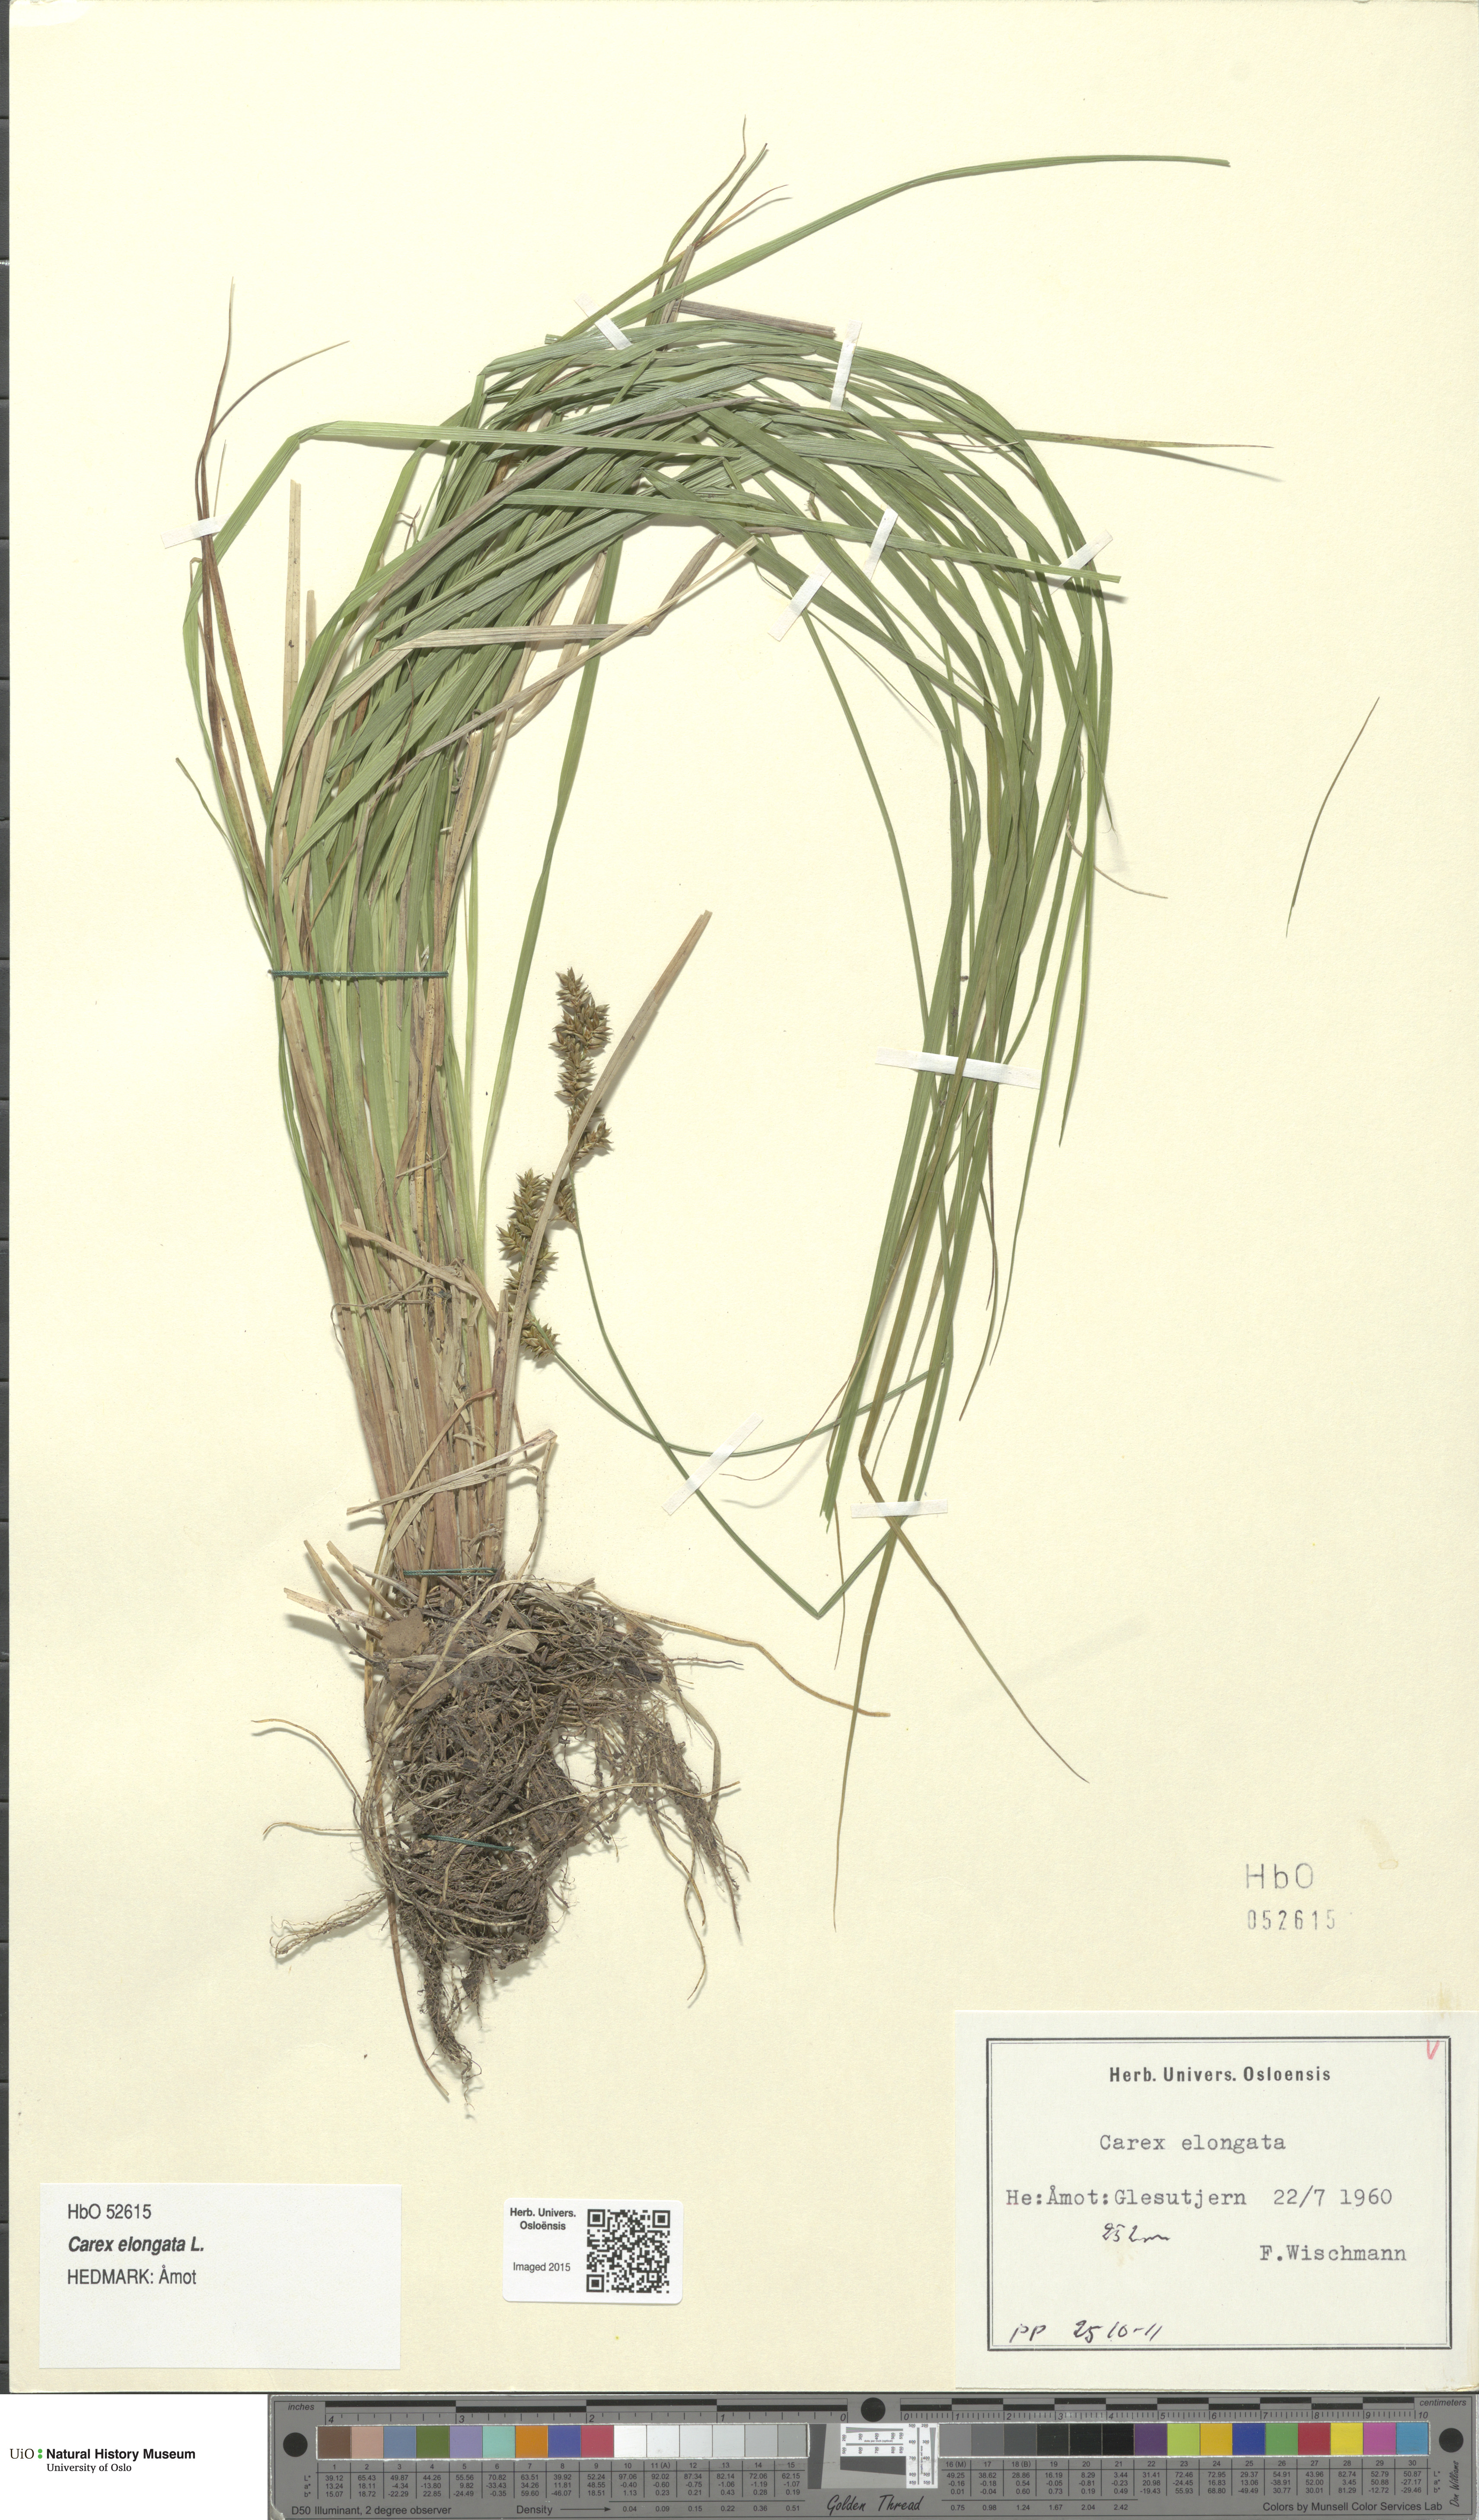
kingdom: Plantae
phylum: Tracheophyta
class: Liliopsida
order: Poales
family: Cyperaceae
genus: Carex
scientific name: Carex elongata
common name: Elongated sedge
